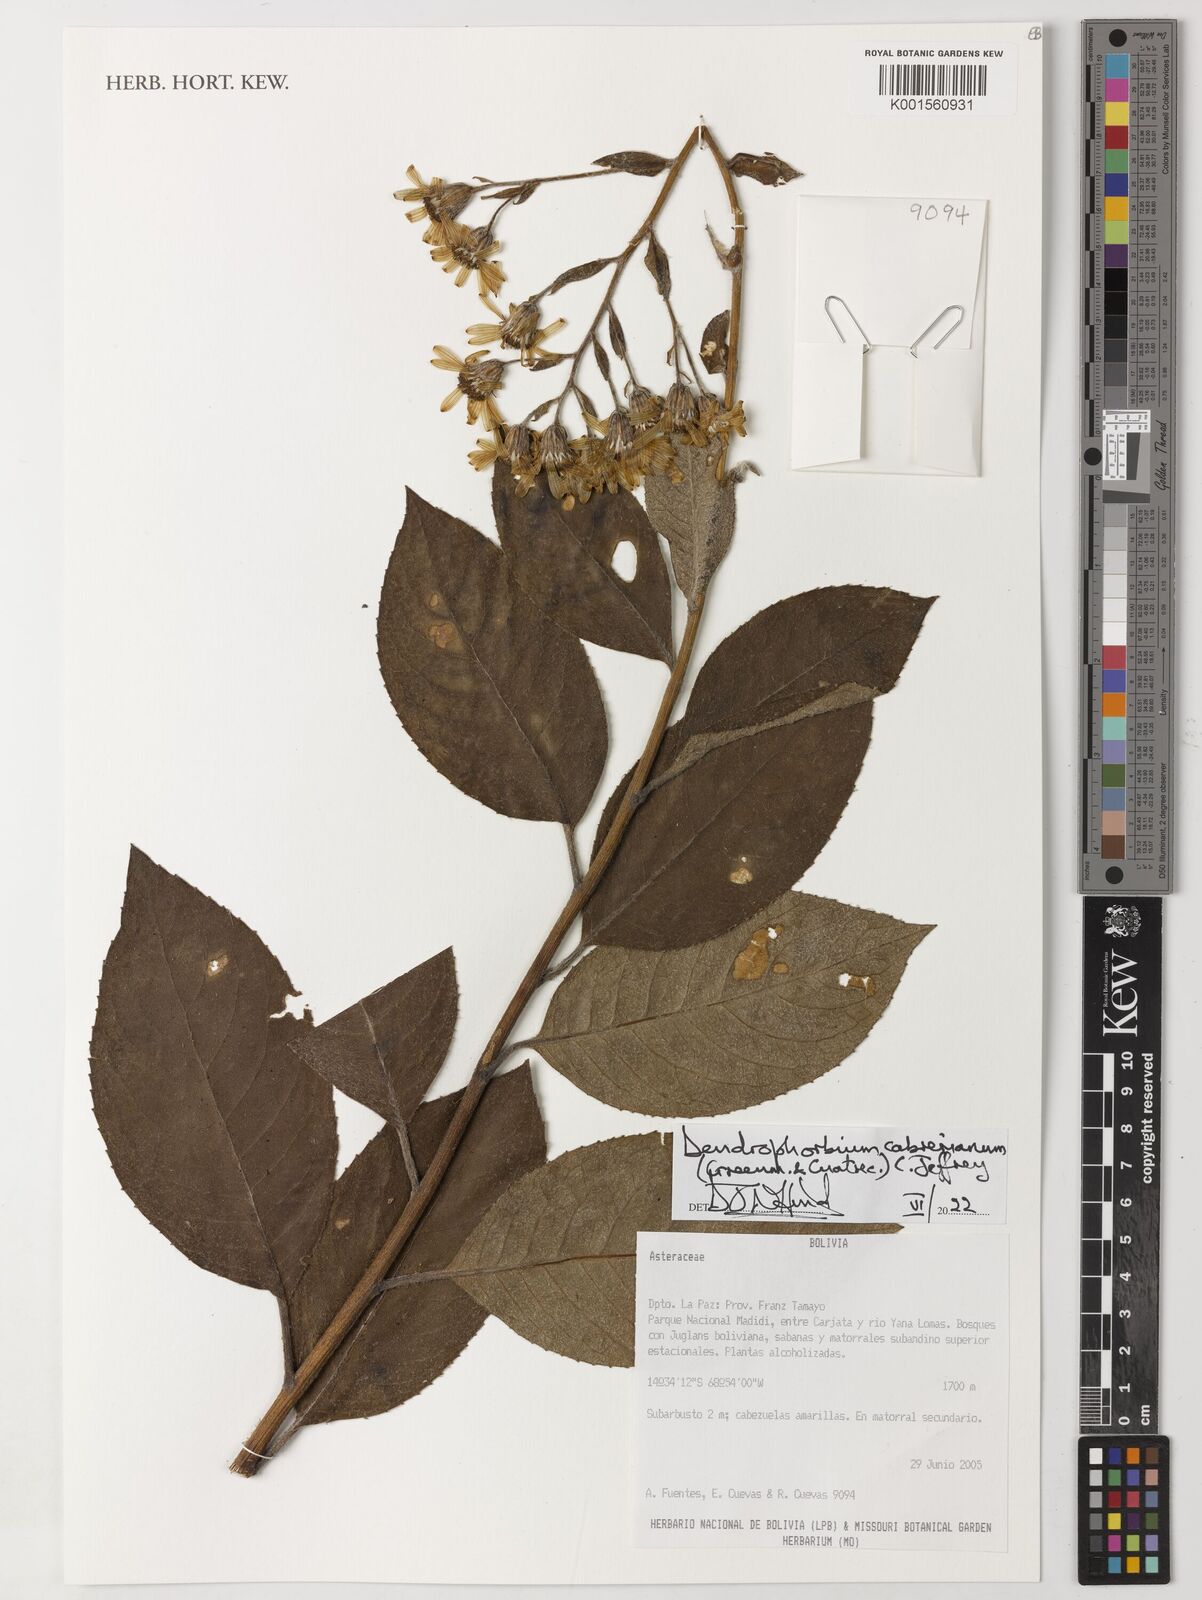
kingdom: Plantae
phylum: Tracheophyta
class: Magnoliopsida
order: Asterales
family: Asteraceae
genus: Dendrophorbium
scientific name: Dendrophorbium cabrerianum
